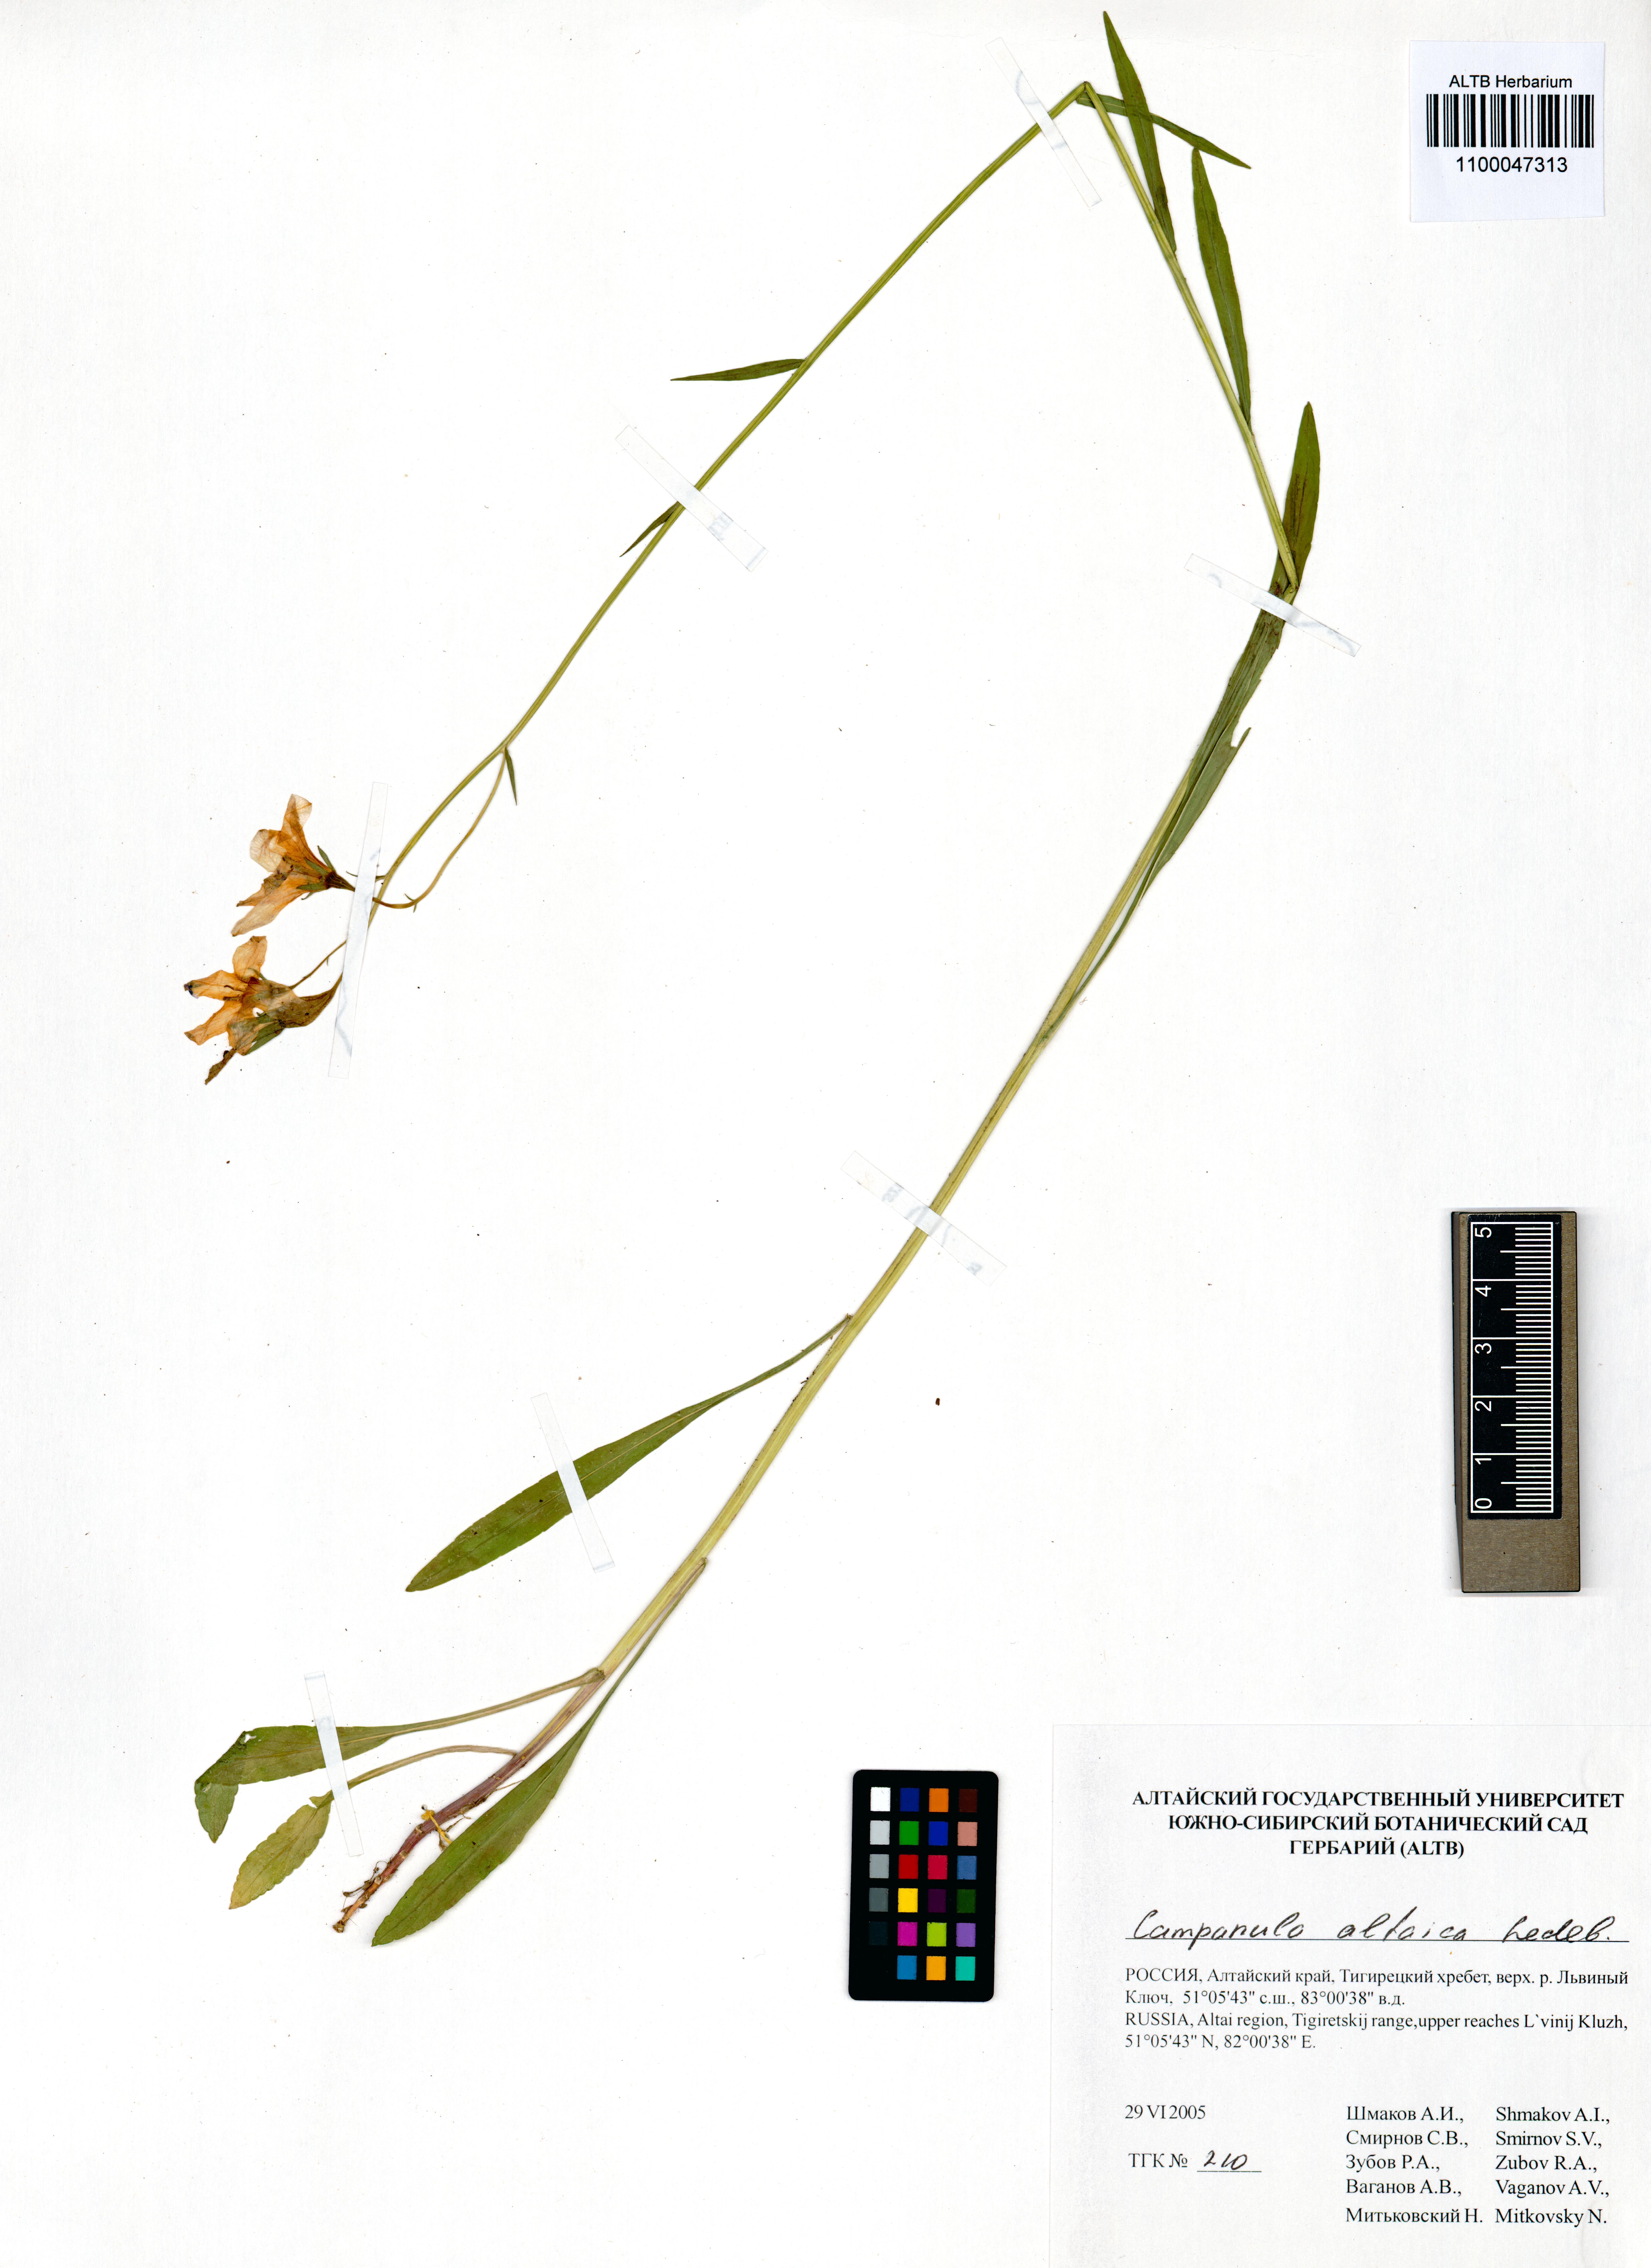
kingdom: Plantae
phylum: Tracheophyta
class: Magnoliopsida
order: Asterales
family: Campanulaceae
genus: Campanula
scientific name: Campanula stevenii
